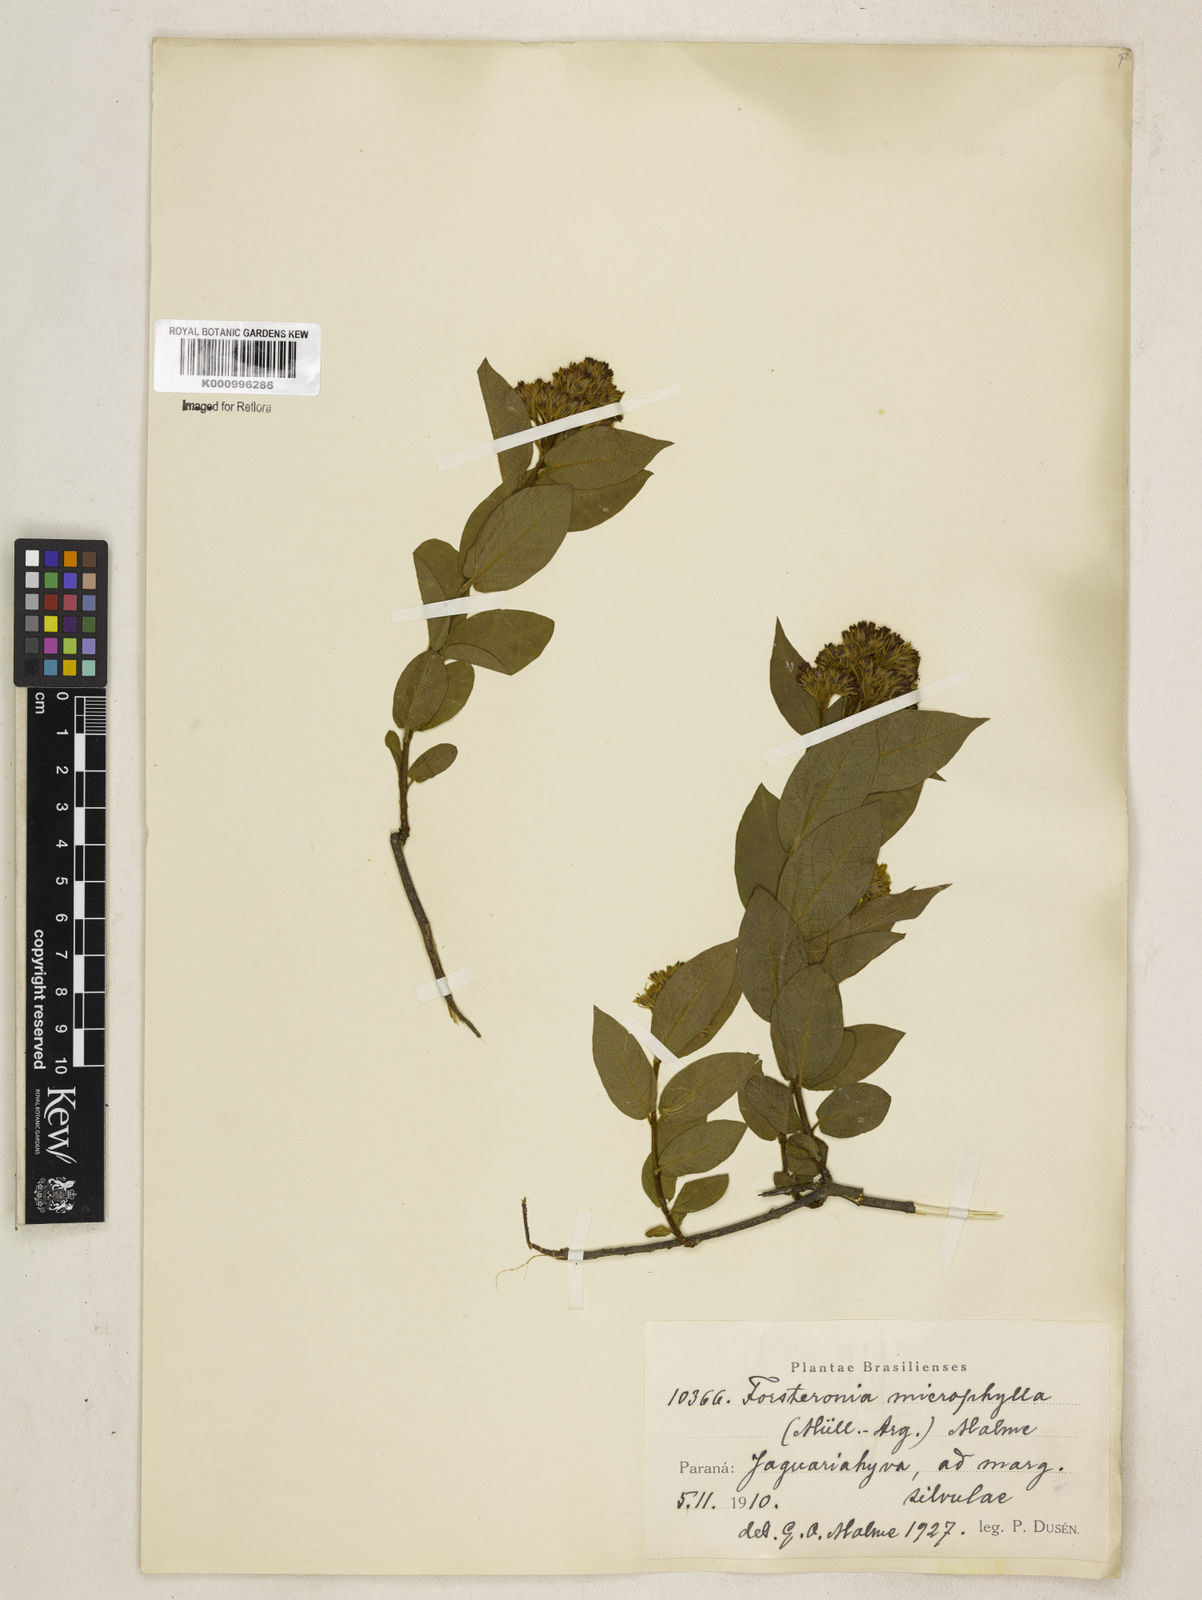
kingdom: Plantae
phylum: Tracheophyta
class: Magnoliopsida
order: Gentianales
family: Apocynaceae
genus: Forsteronia
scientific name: Forsteronia velloziana
